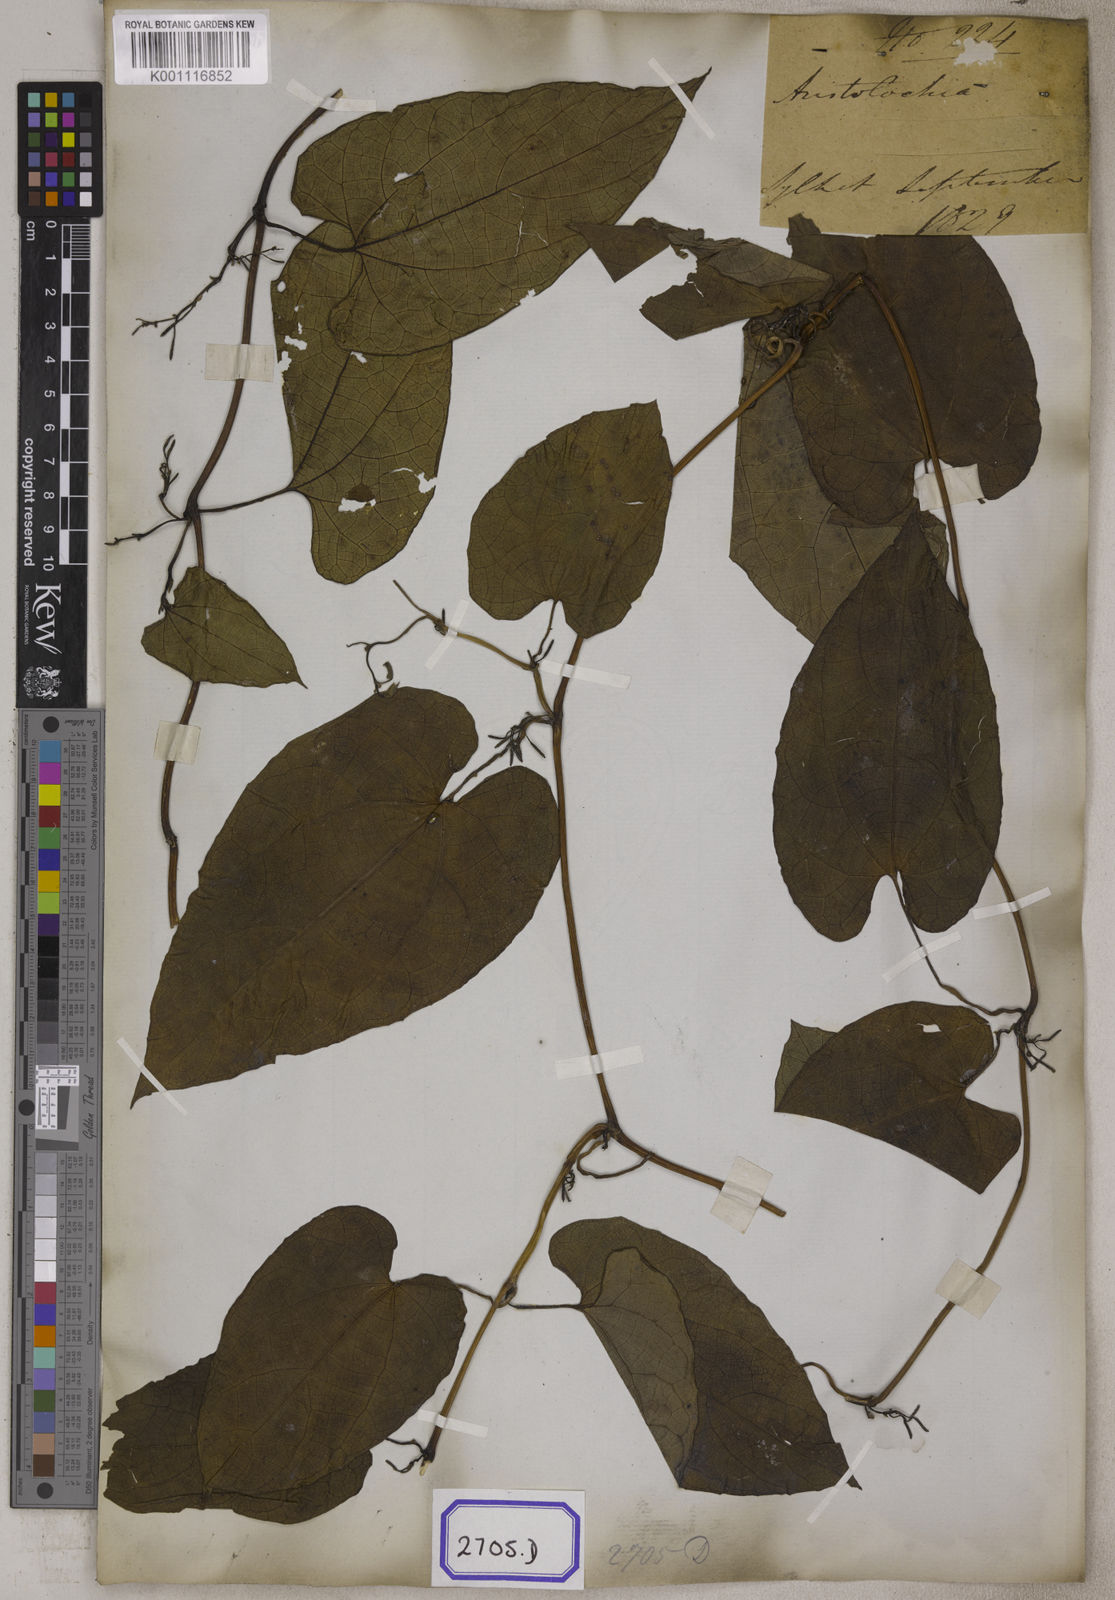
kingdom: Plantae
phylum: Tracheophyta
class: Magnoliopsida
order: Piperales
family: Aristolochiaceae
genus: Aristolochia
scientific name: Aristolochia acuminata
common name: Indian birthwort
